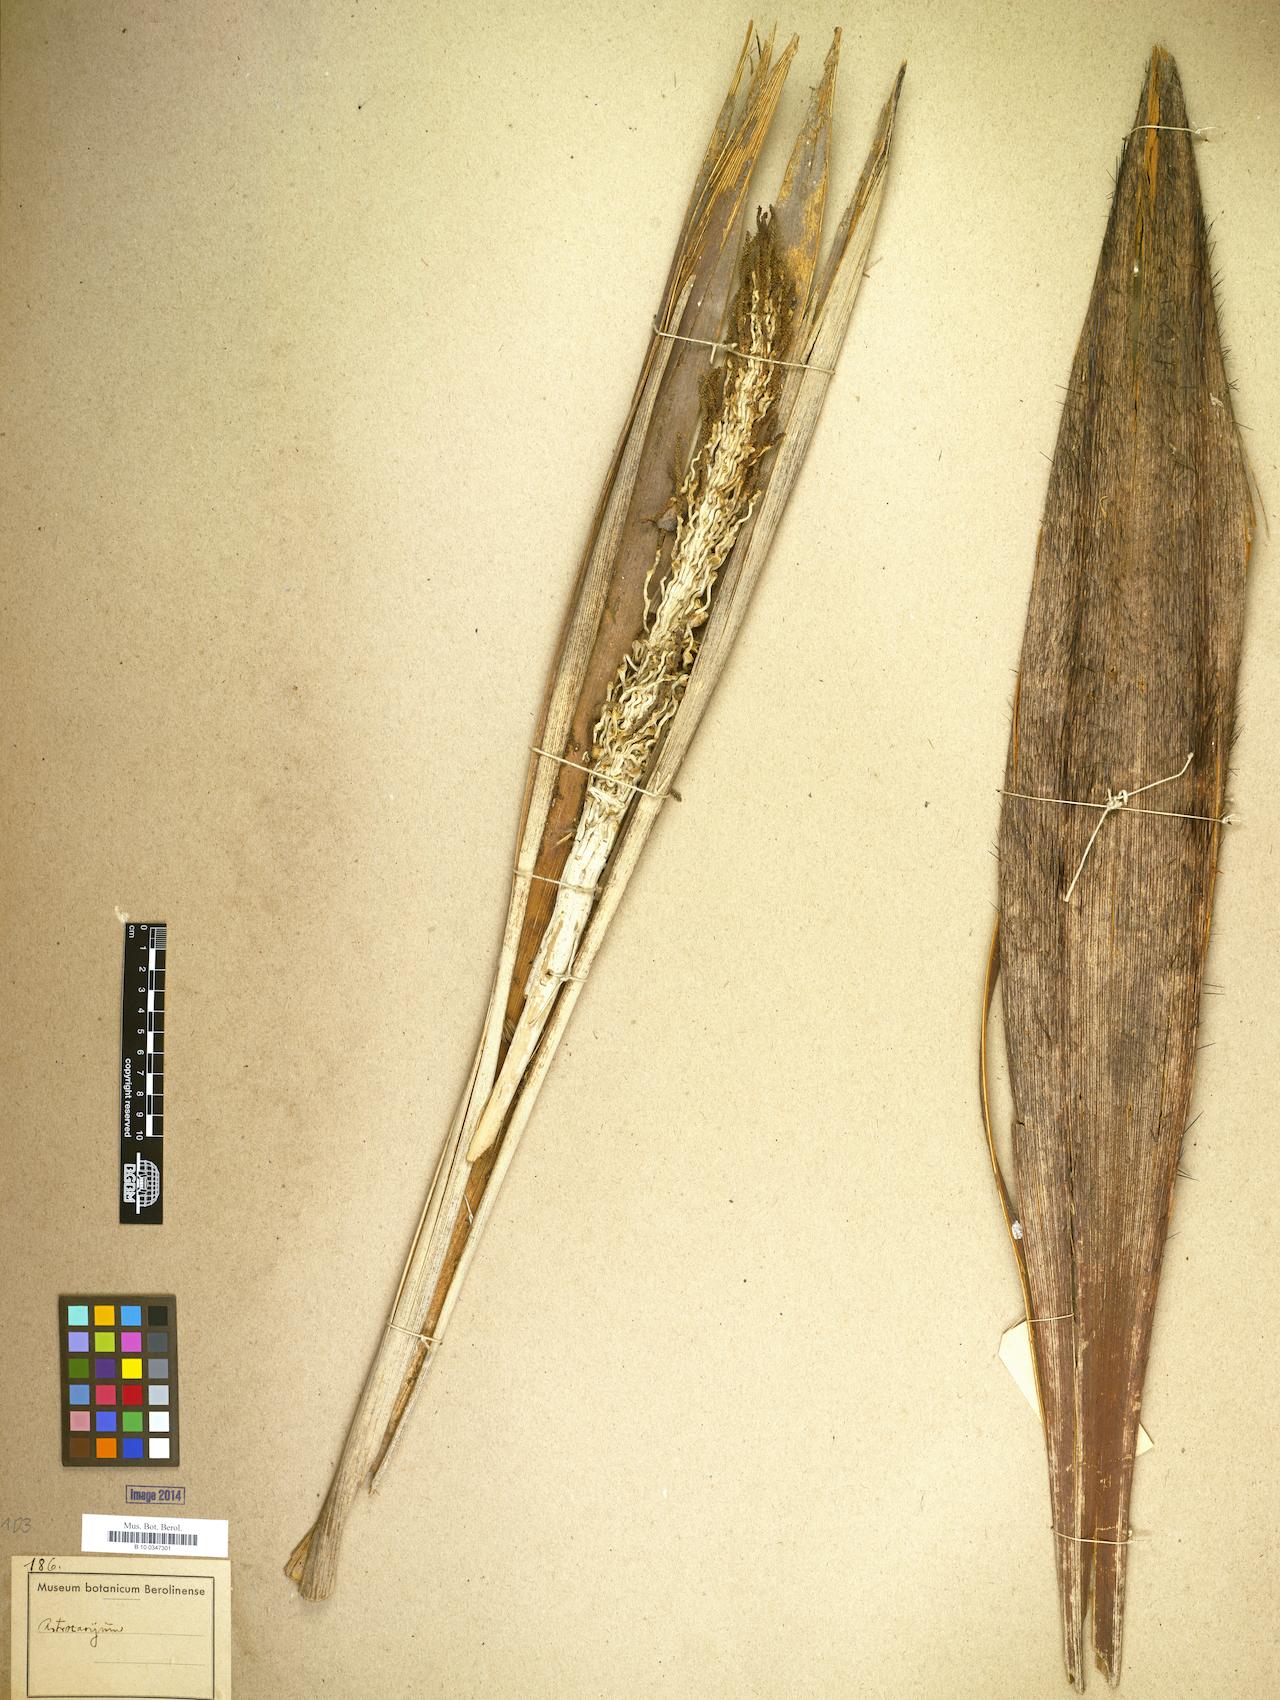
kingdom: Plantae
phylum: Tracheophyta
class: Liliopsida
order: Arecales
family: Arecaceae
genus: Astrocaryum
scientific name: Astrocaryum
